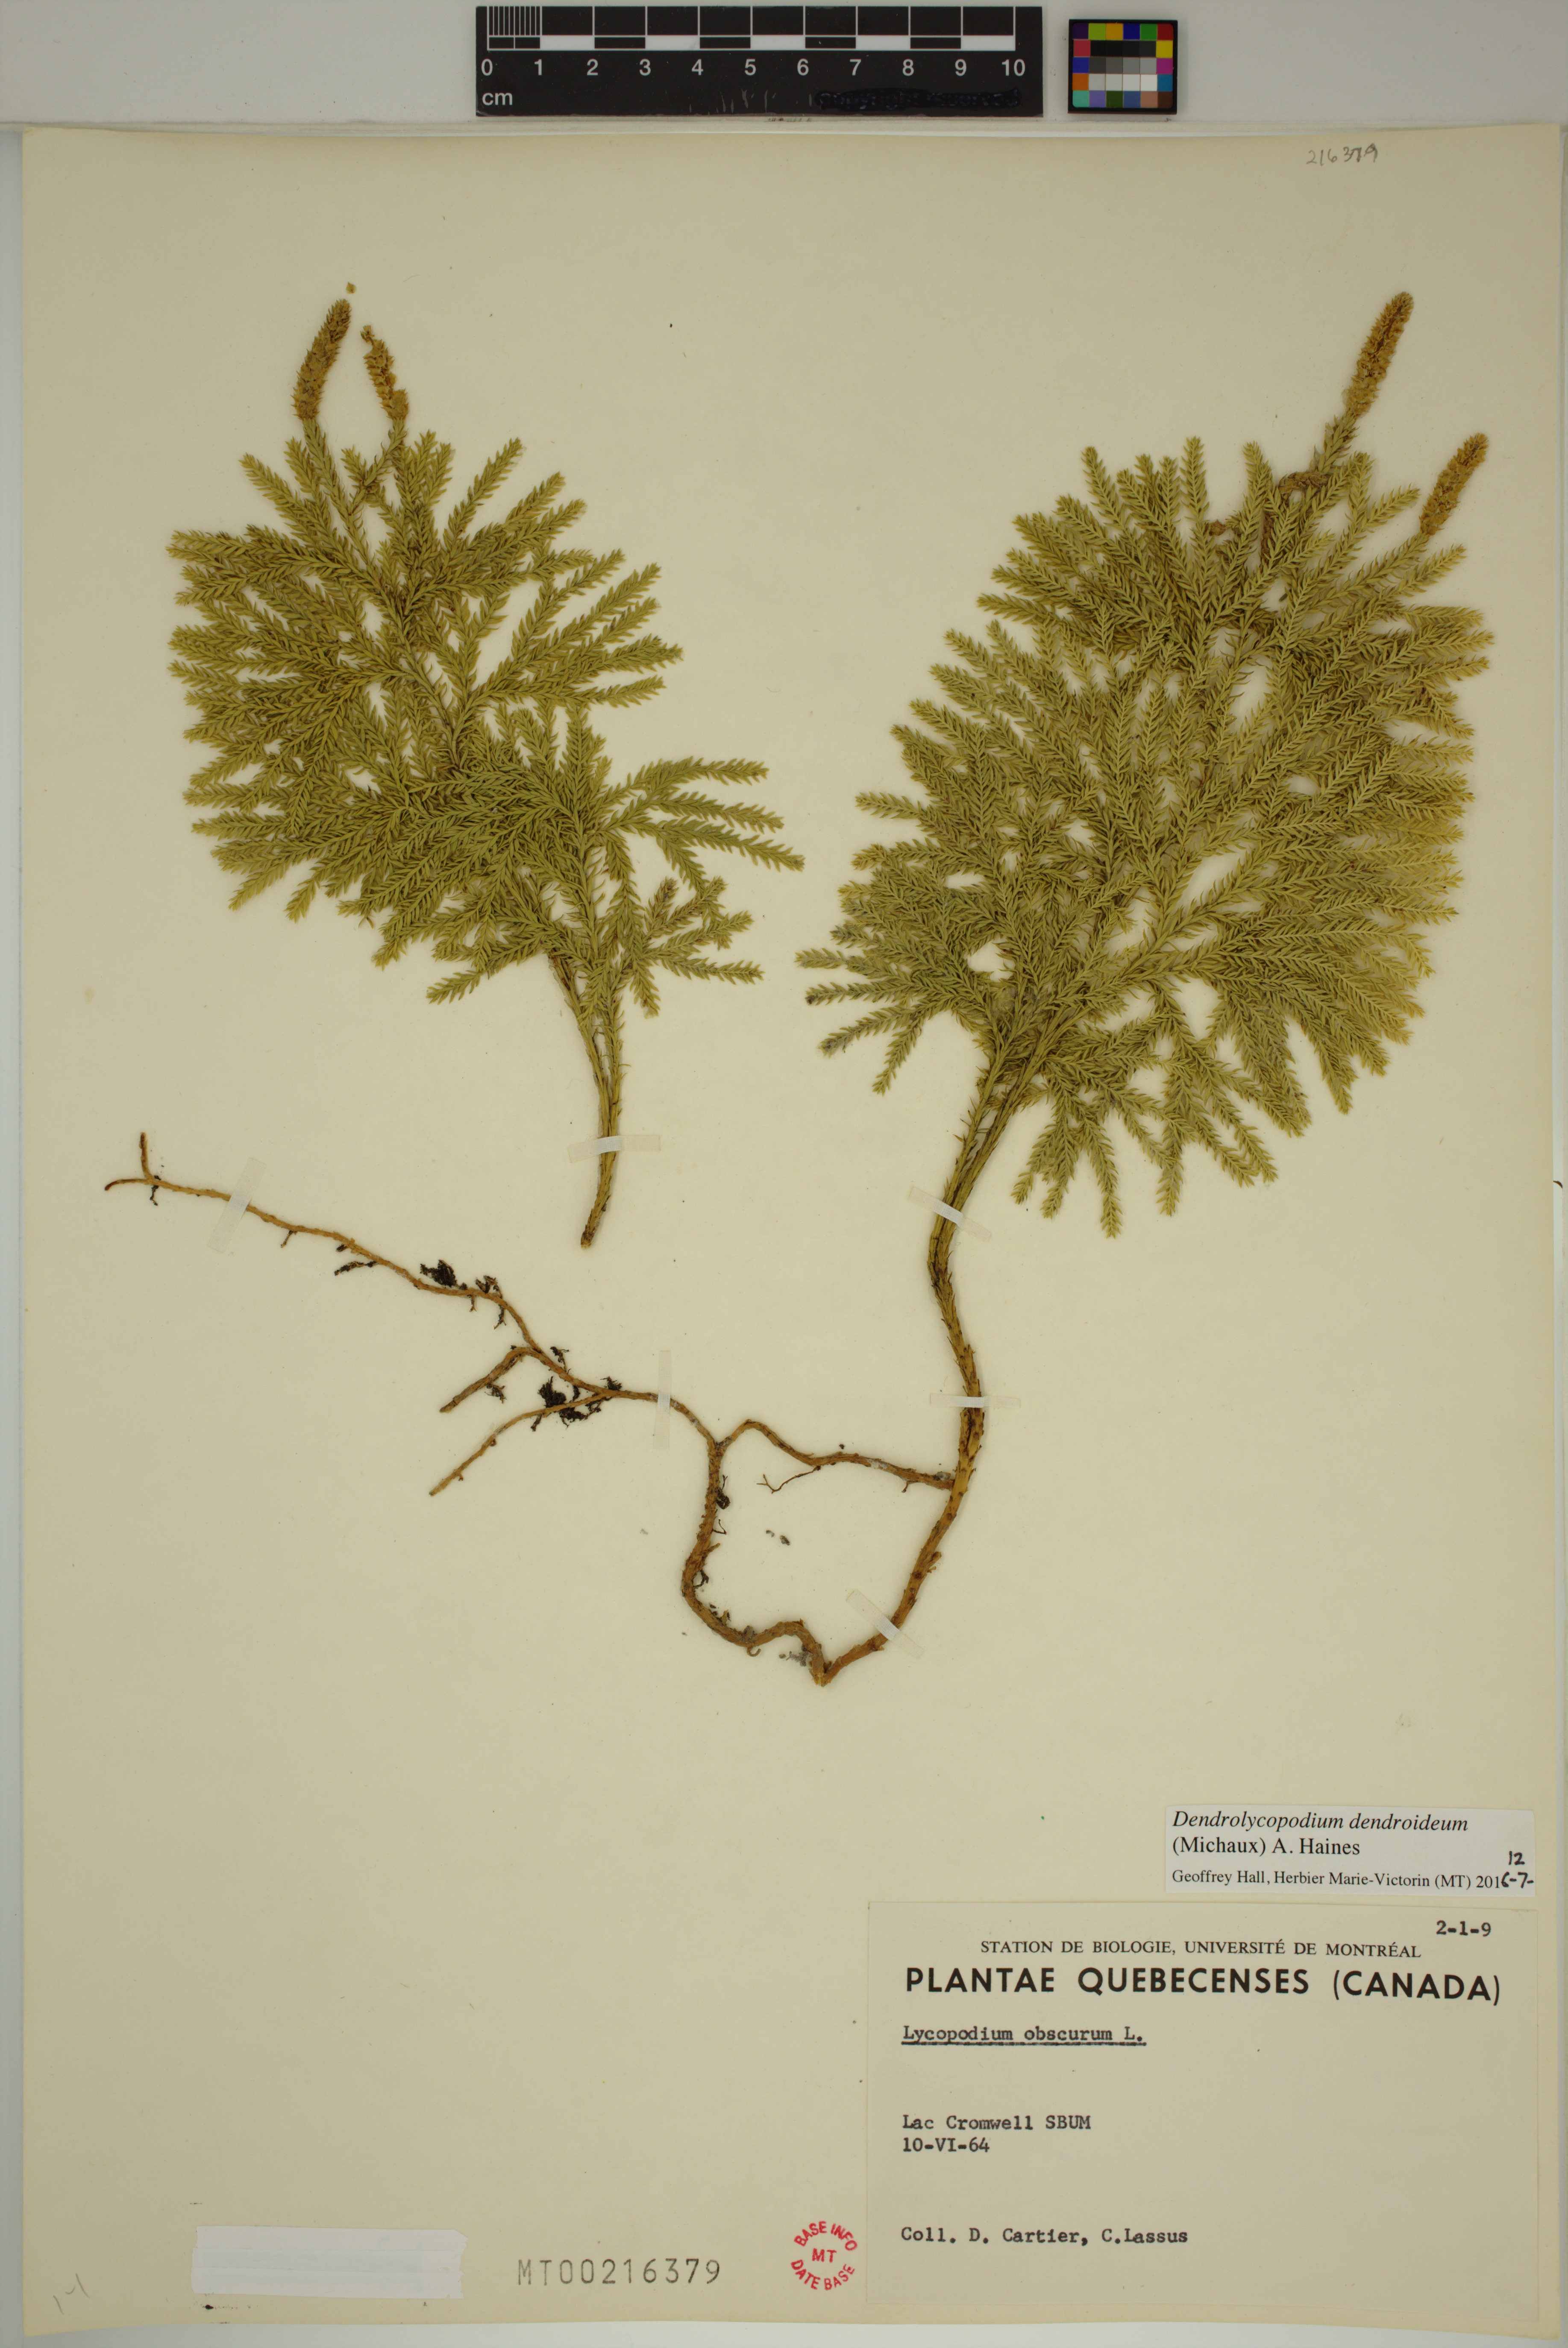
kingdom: Plantae
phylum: Tracheophyta
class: Lycopodiopsida
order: Lycopodiales
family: Lycopodiaceae
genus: Dendrolycopodium
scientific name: Dendrolycopodium dendroideum
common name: Northern tree-clubmoss
